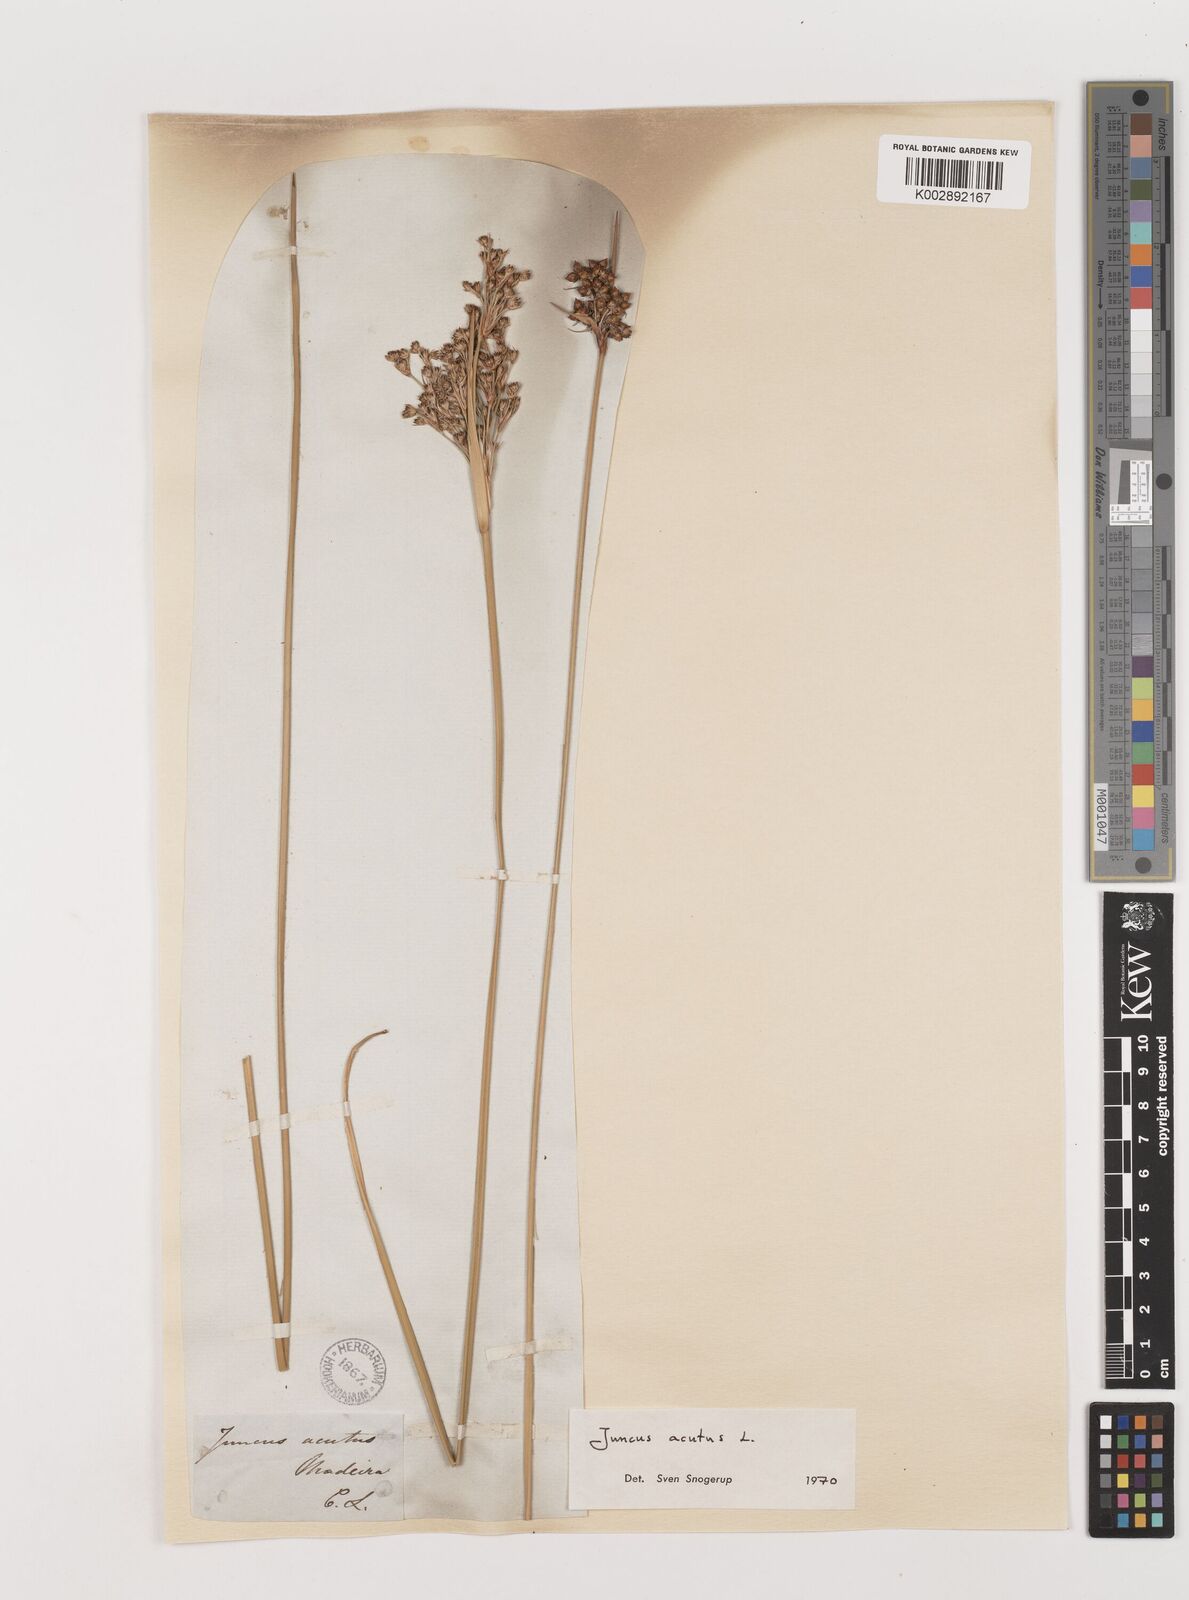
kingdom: Plantae
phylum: Tracheophyta
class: Liliopsida
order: Poales
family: Juncaceae
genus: Juncus
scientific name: Juncus acutus
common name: Sharp rush
